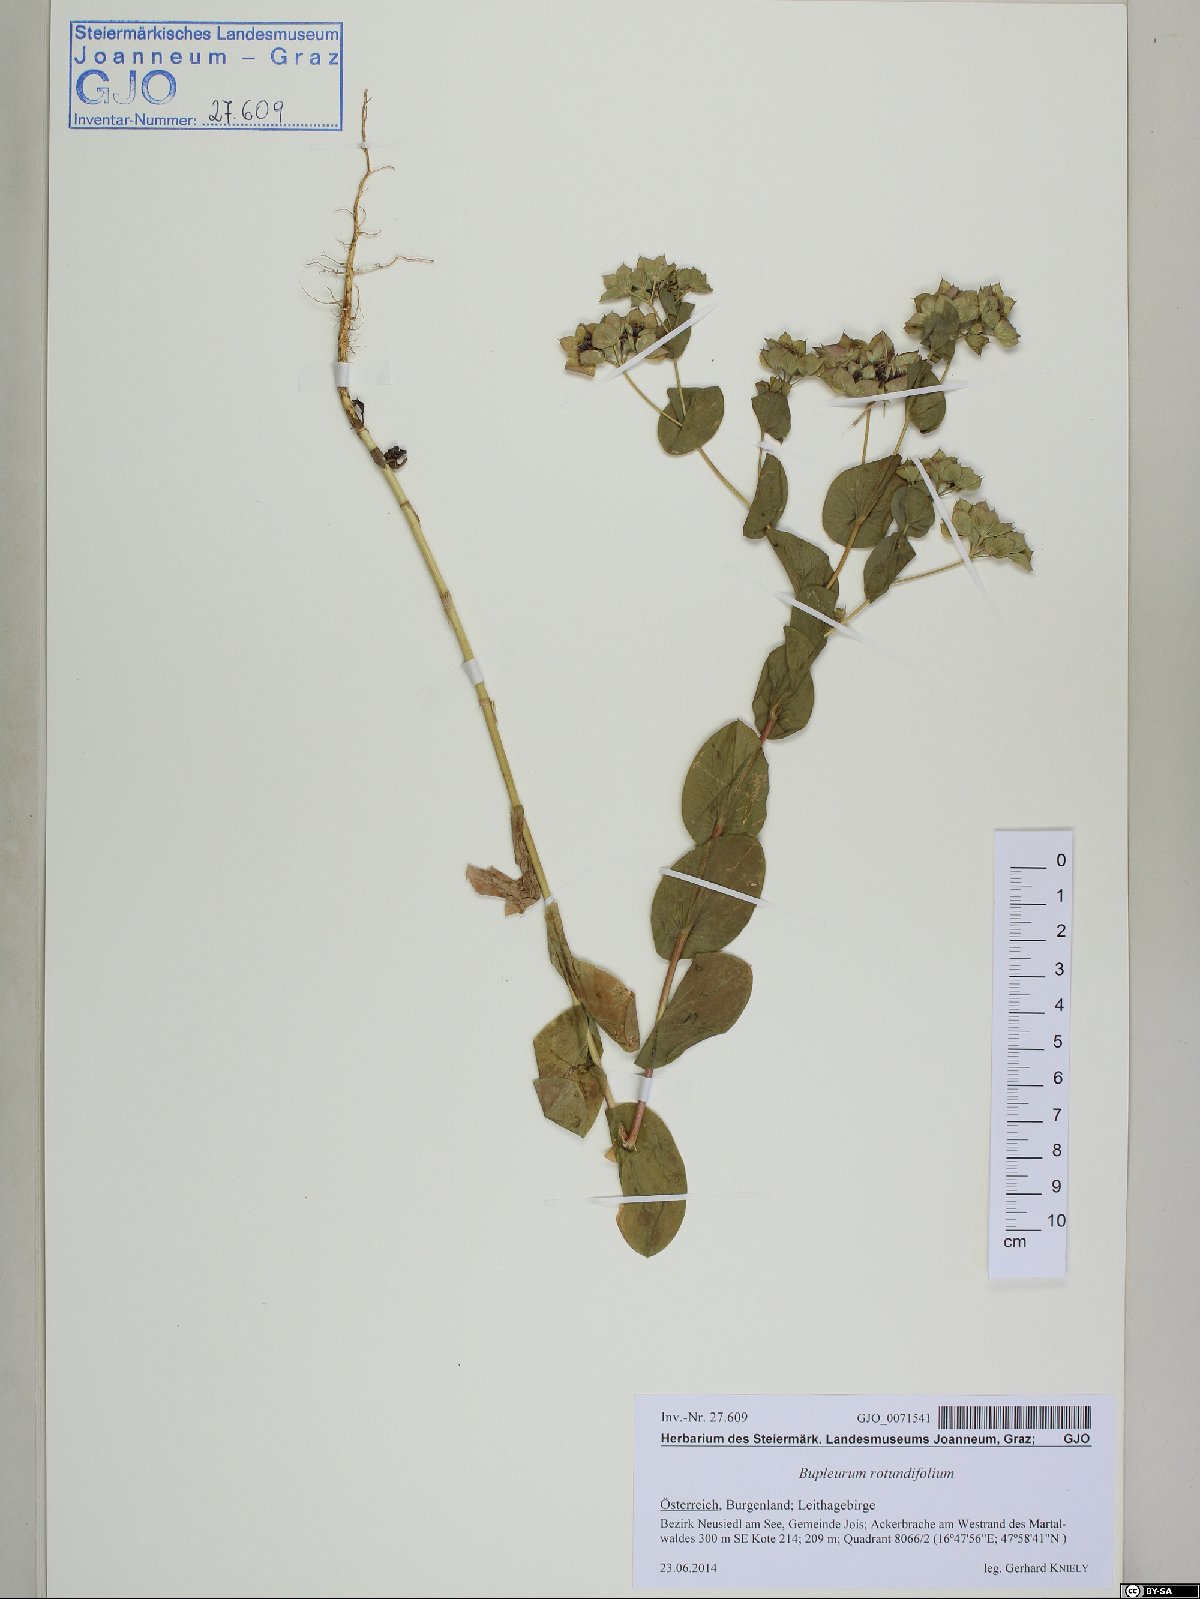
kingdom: Plantae
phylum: Tracheophyta
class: Magnoliopsida
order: Apiales
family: Apiaceae
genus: Bupleurum
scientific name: Bupleurum rotundifolium
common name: Thorow-wax
